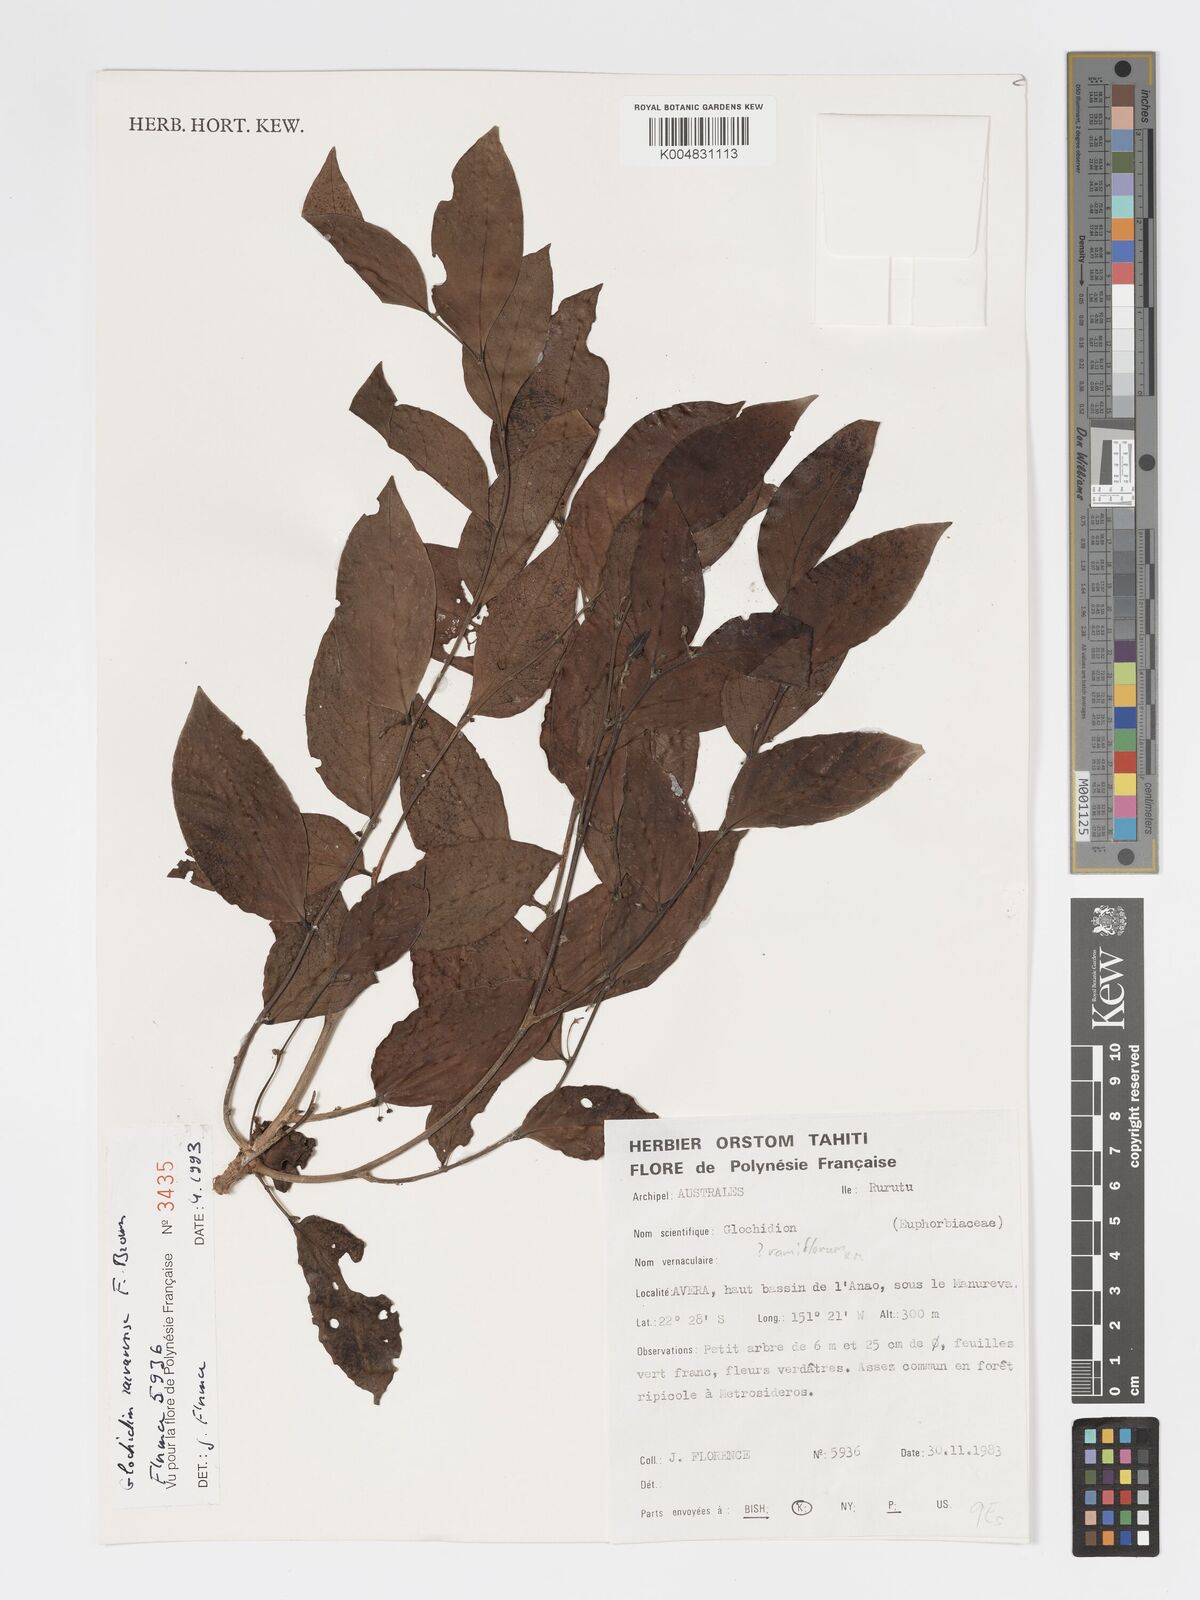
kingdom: Plantae
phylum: Tracheophyta
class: Magnoliopsida
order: Malpighiales
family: Phyllanthaceae
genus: Glochidion
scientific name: Glochidion raivavense
